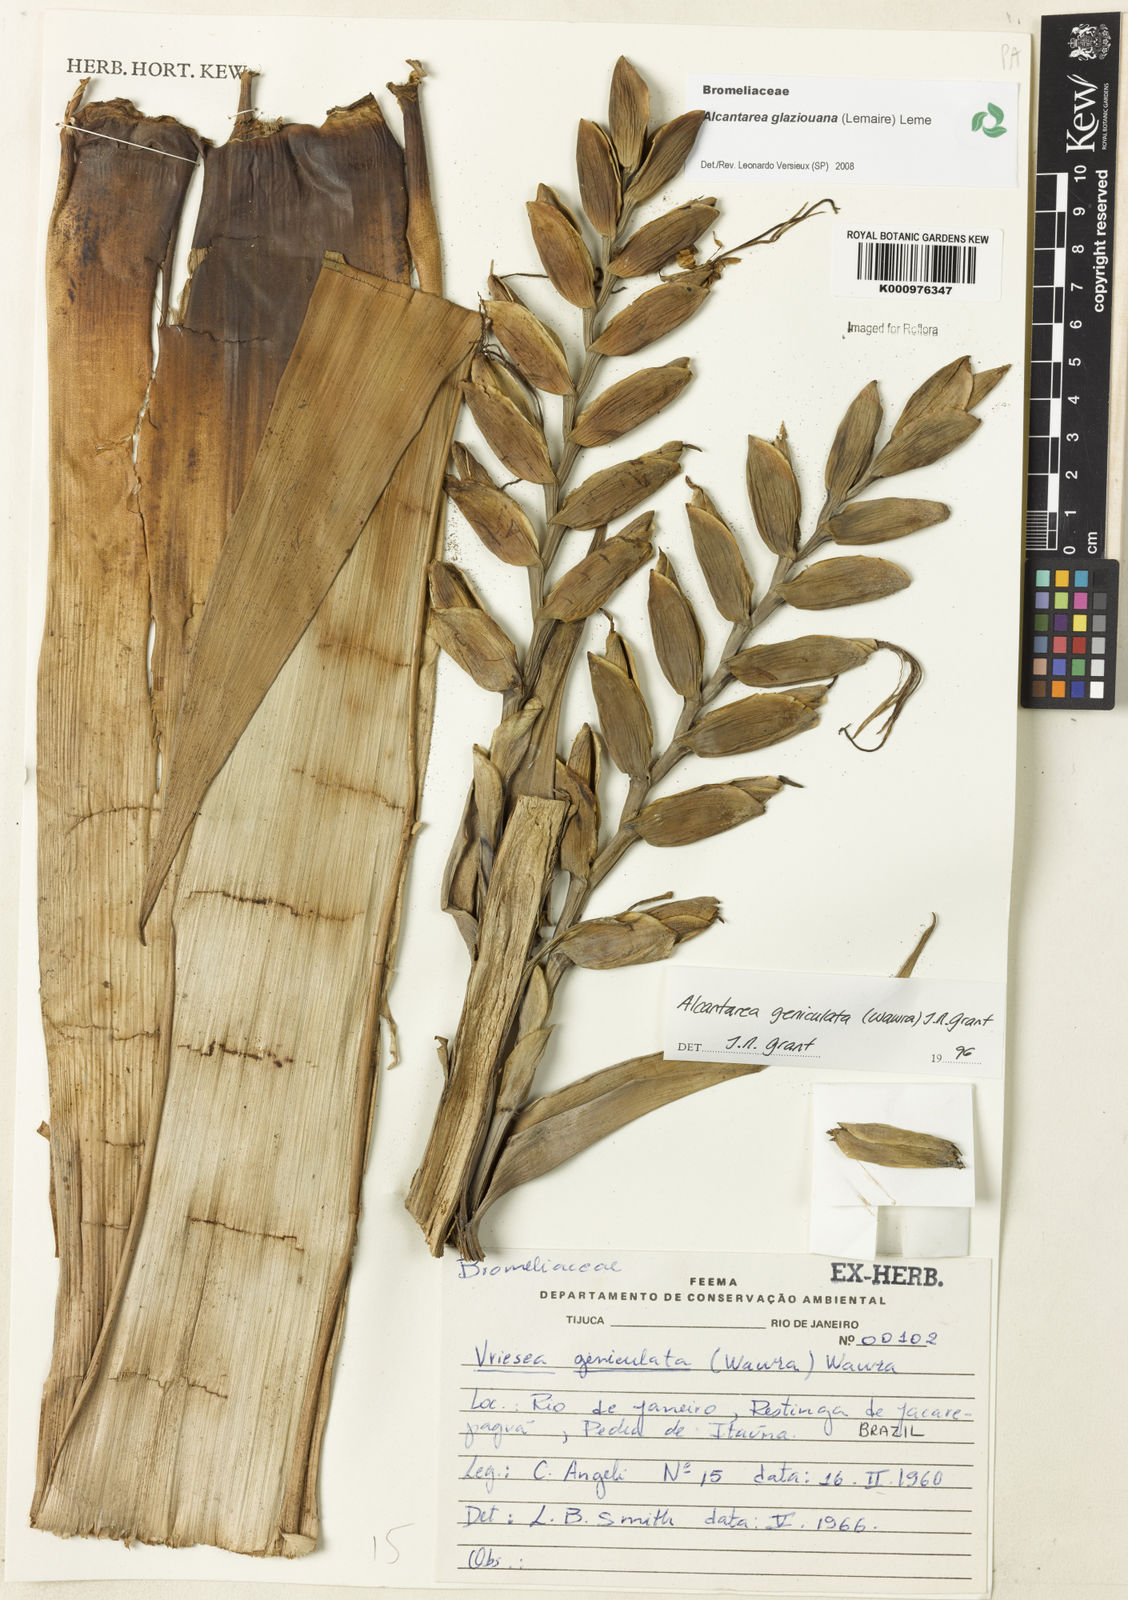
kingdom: Plantae
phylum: Tracheophyta
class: Liliopsida
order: Poales
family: Bromeliaceae
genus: Vriesea
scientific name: Vriesea
